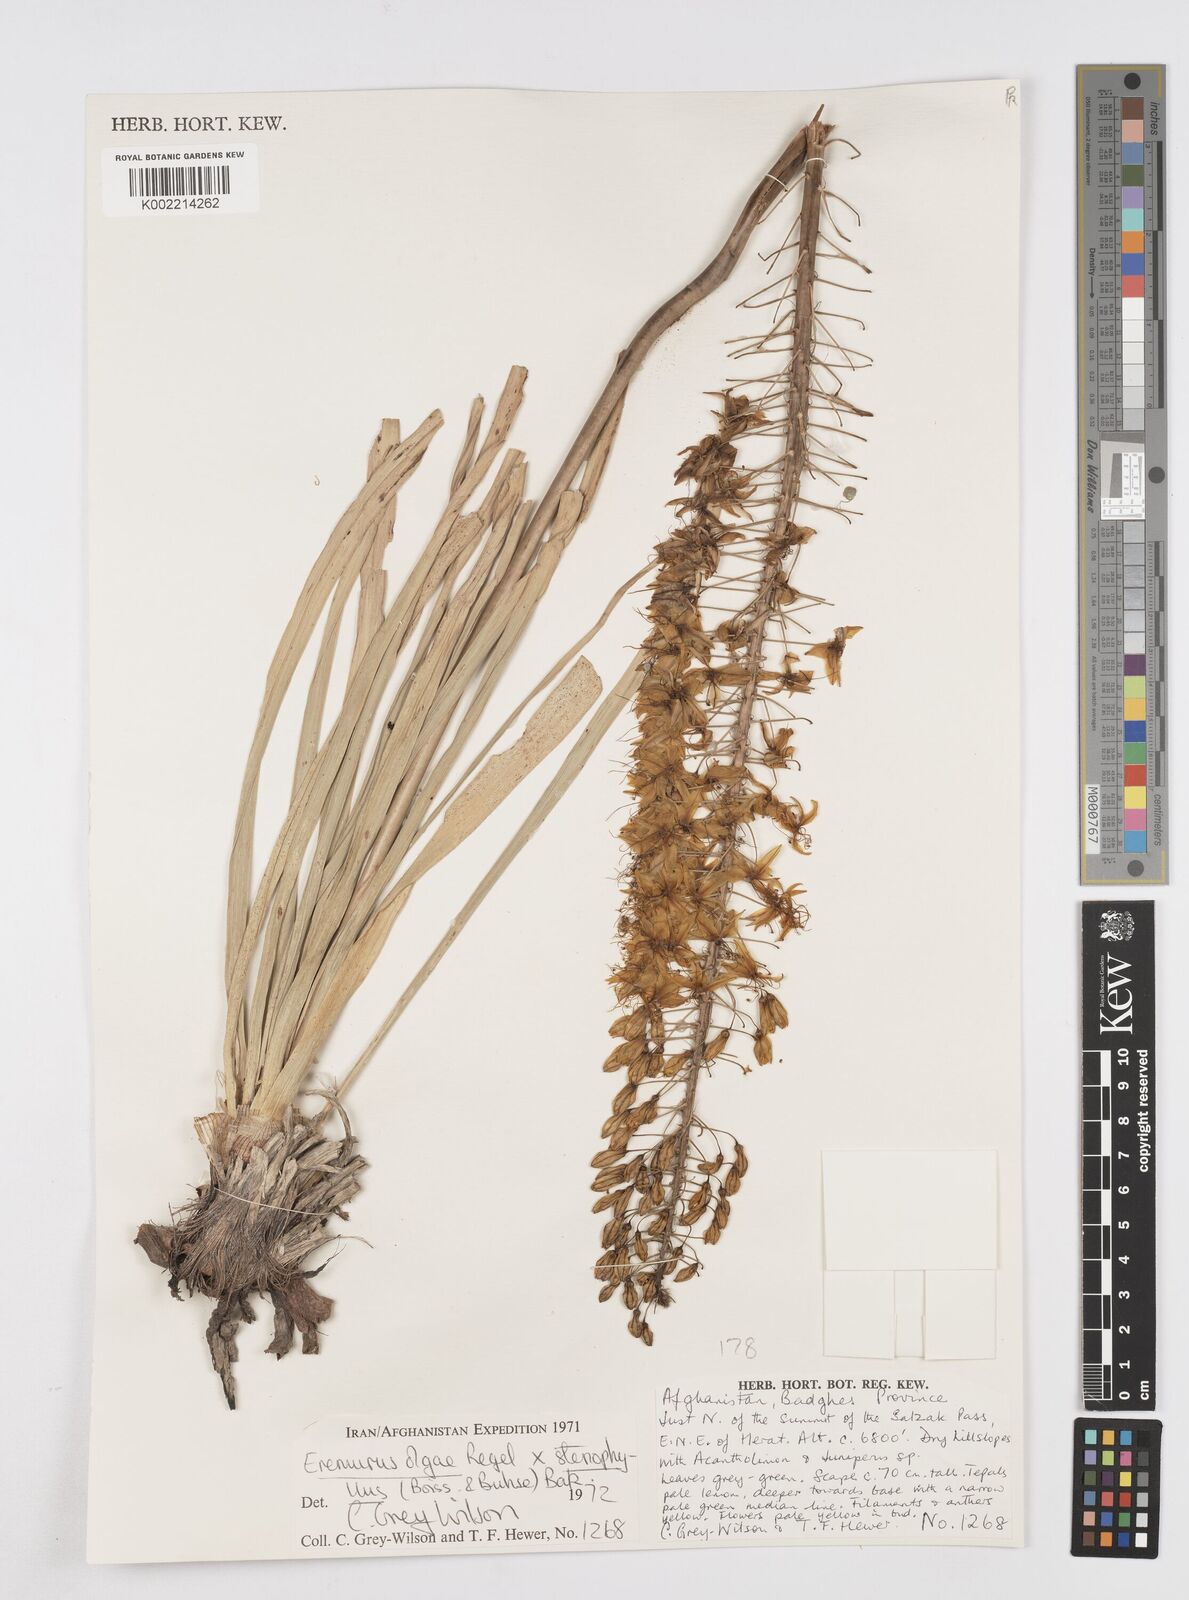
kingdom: Plantae
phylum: Tracheophyta
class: Liliopsida
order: Asparagales
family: Asphodelaceae
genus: Eremurus
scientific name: Eremurus olgae
